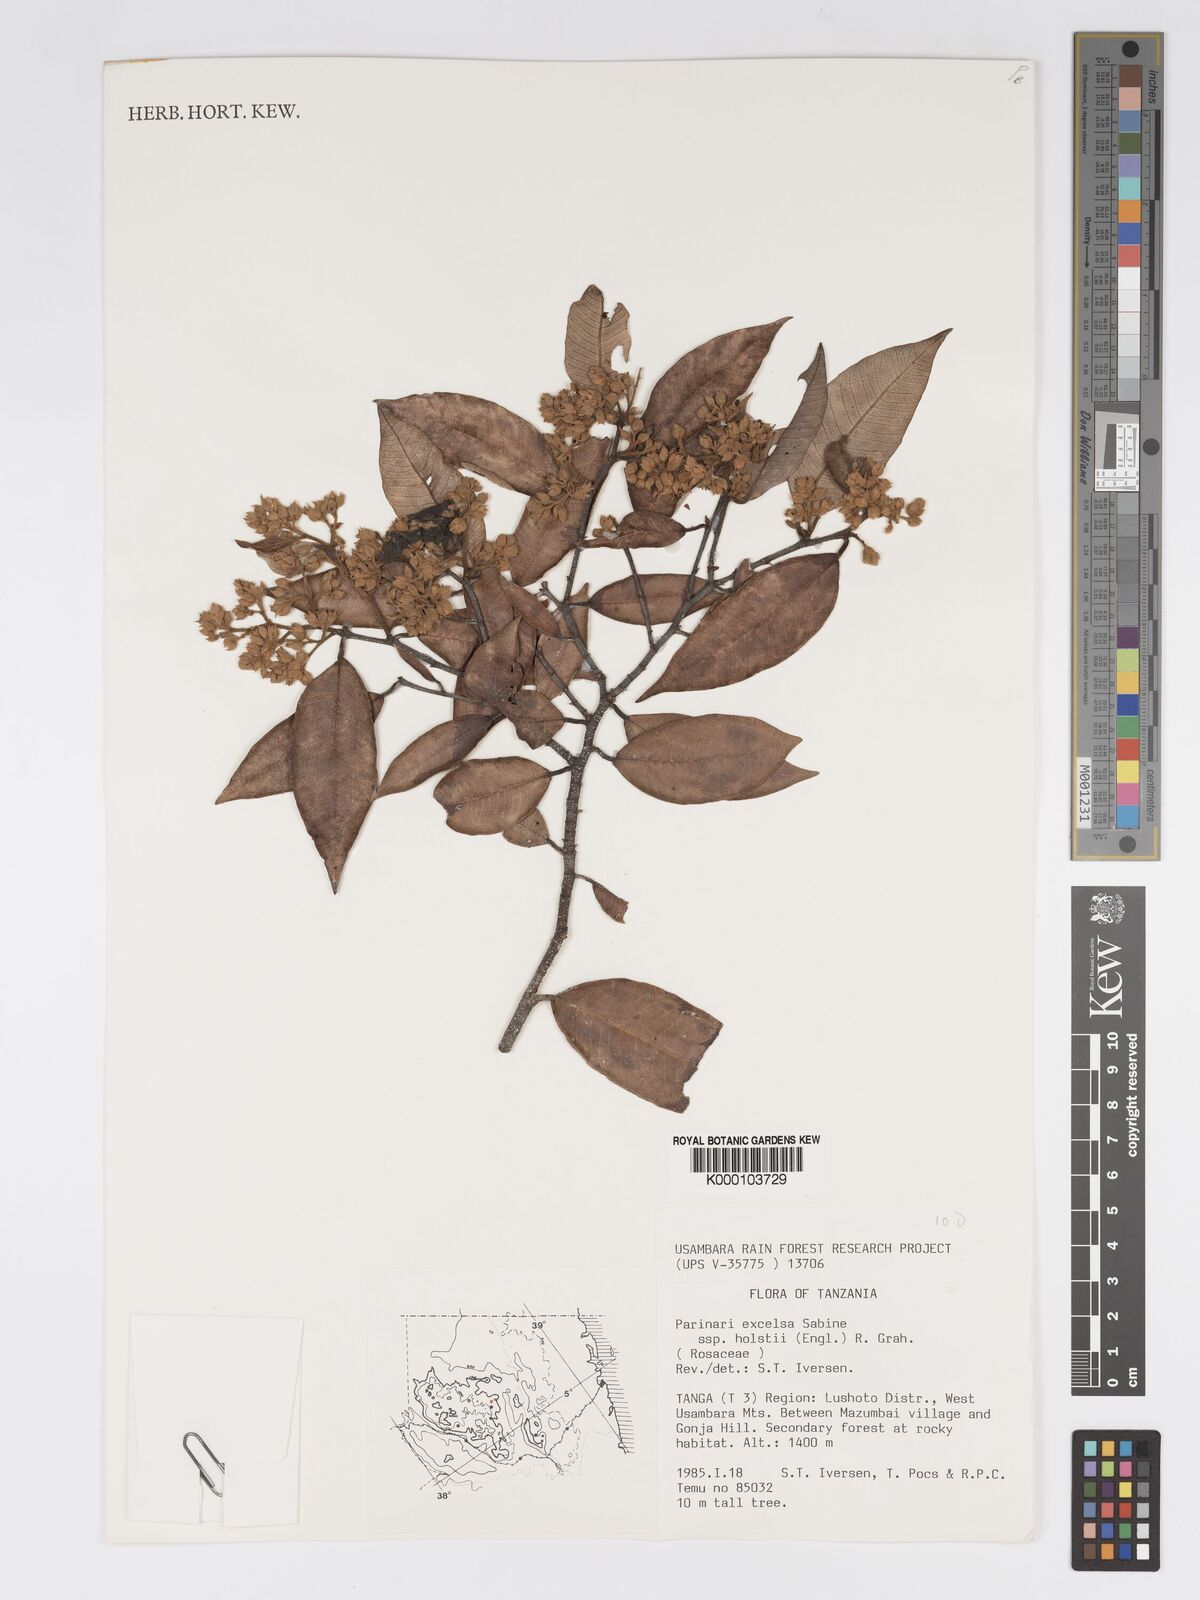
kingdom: Plantae
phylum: Tracheophyta
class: Magnoliopsida
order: Malpighiales
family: Chrysobalanaceae
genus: Parinari
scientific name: Parinari excelsa
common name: Guinea-plum
